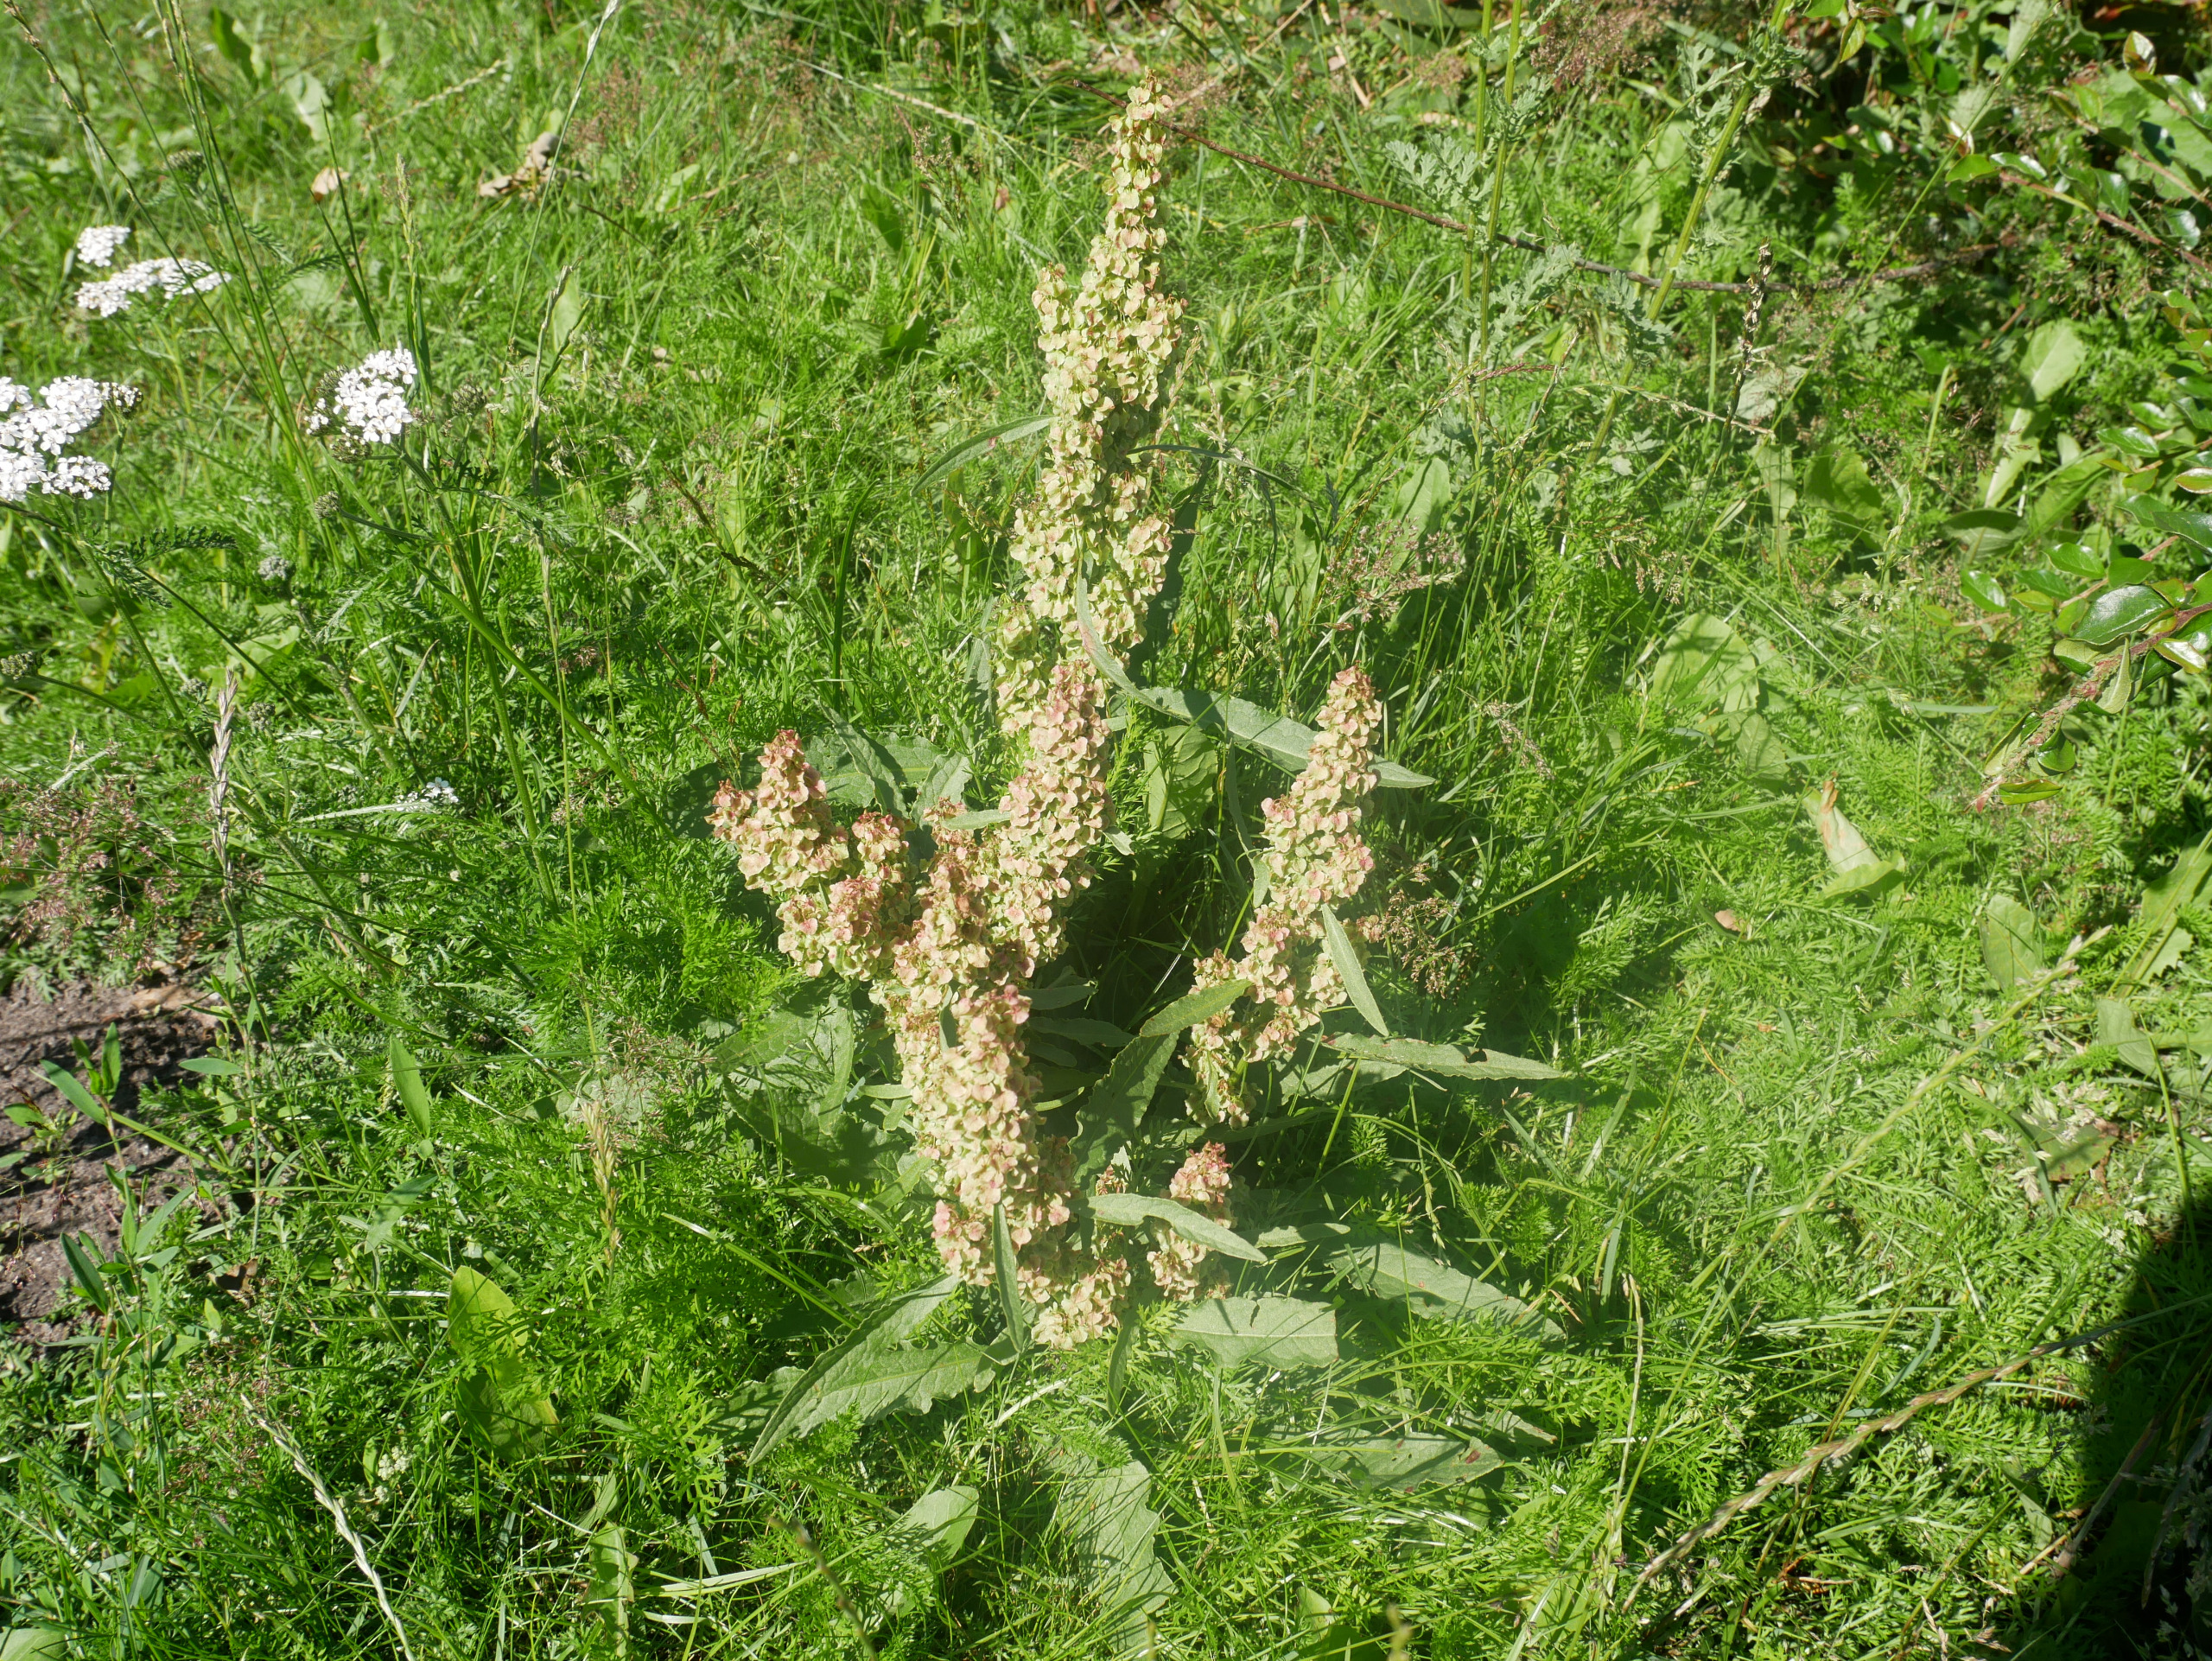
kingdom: Plantae
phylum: Tracheophyta
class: Magnoliopsida
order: Caryophyllales
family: Polygonaceae
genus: Rumex
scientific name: Rumex longifolius
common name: By-skræppe
